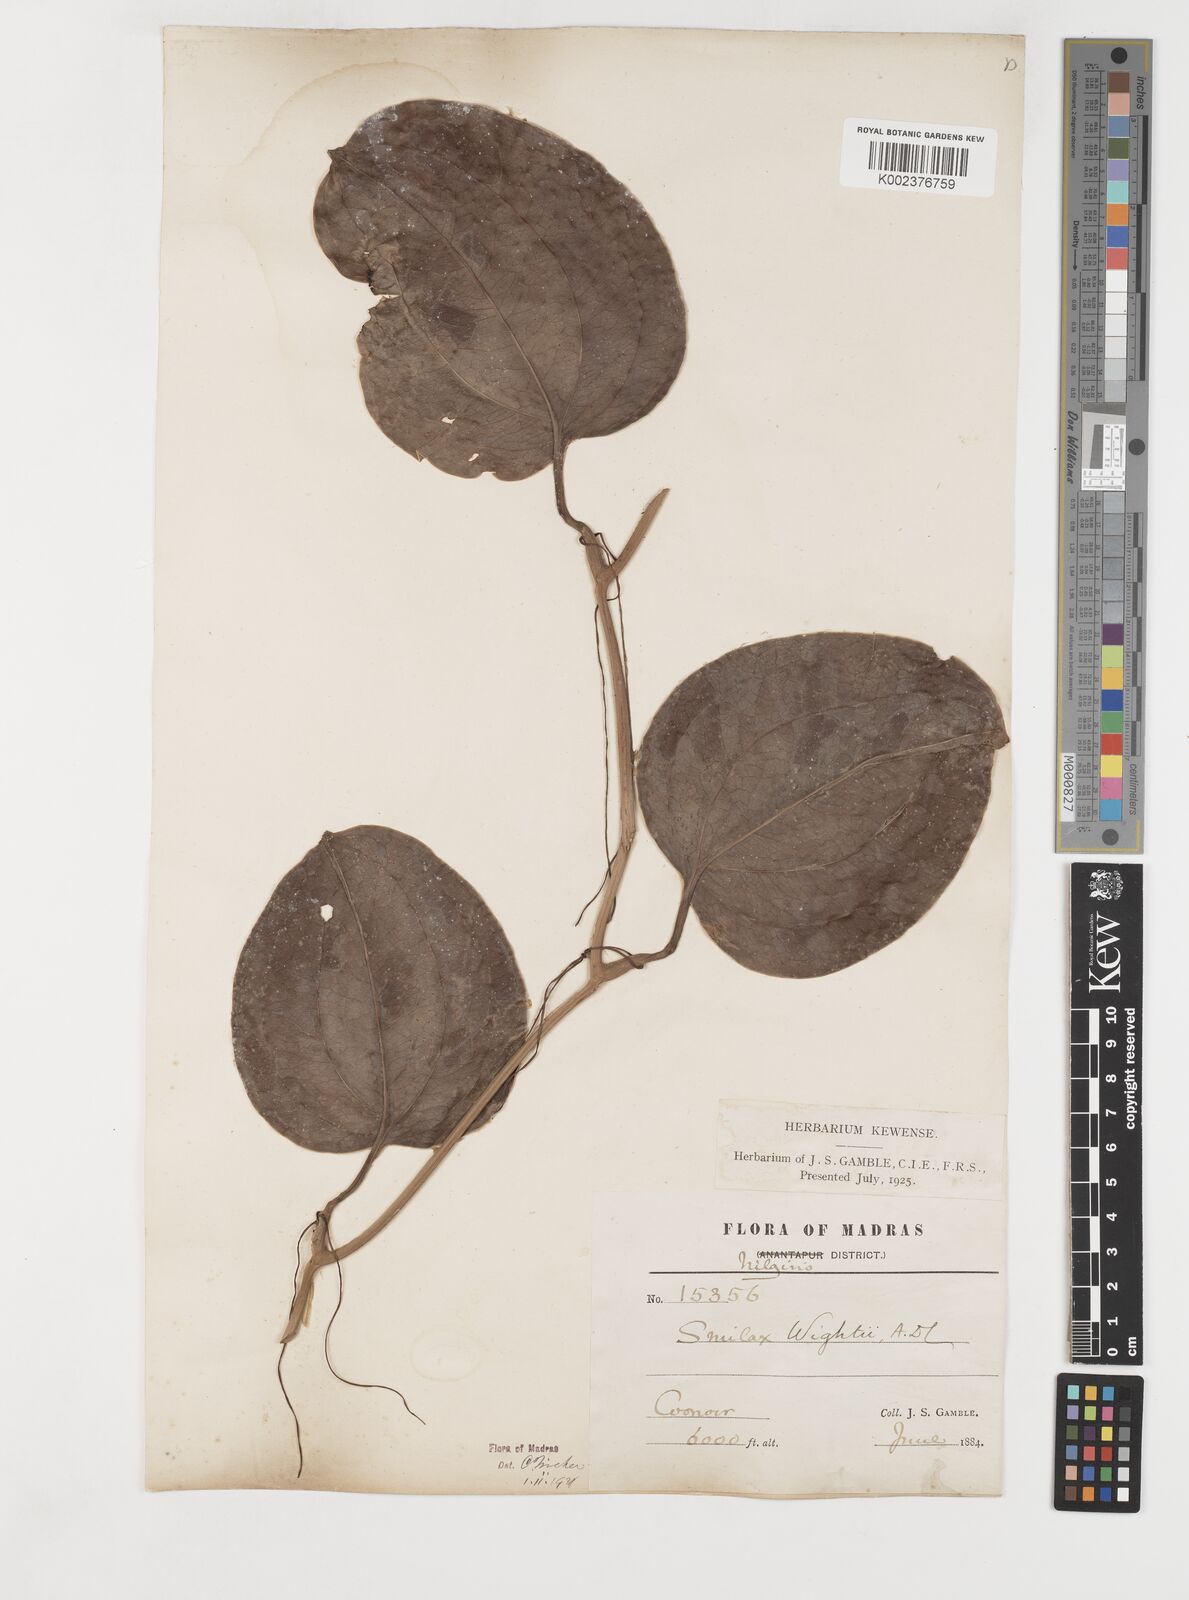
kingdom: Plantae
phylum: Tracheophyta
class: Liliopsida
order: Liliales
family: Smilacaceae
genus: Smilax
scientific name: Smilax wightii
